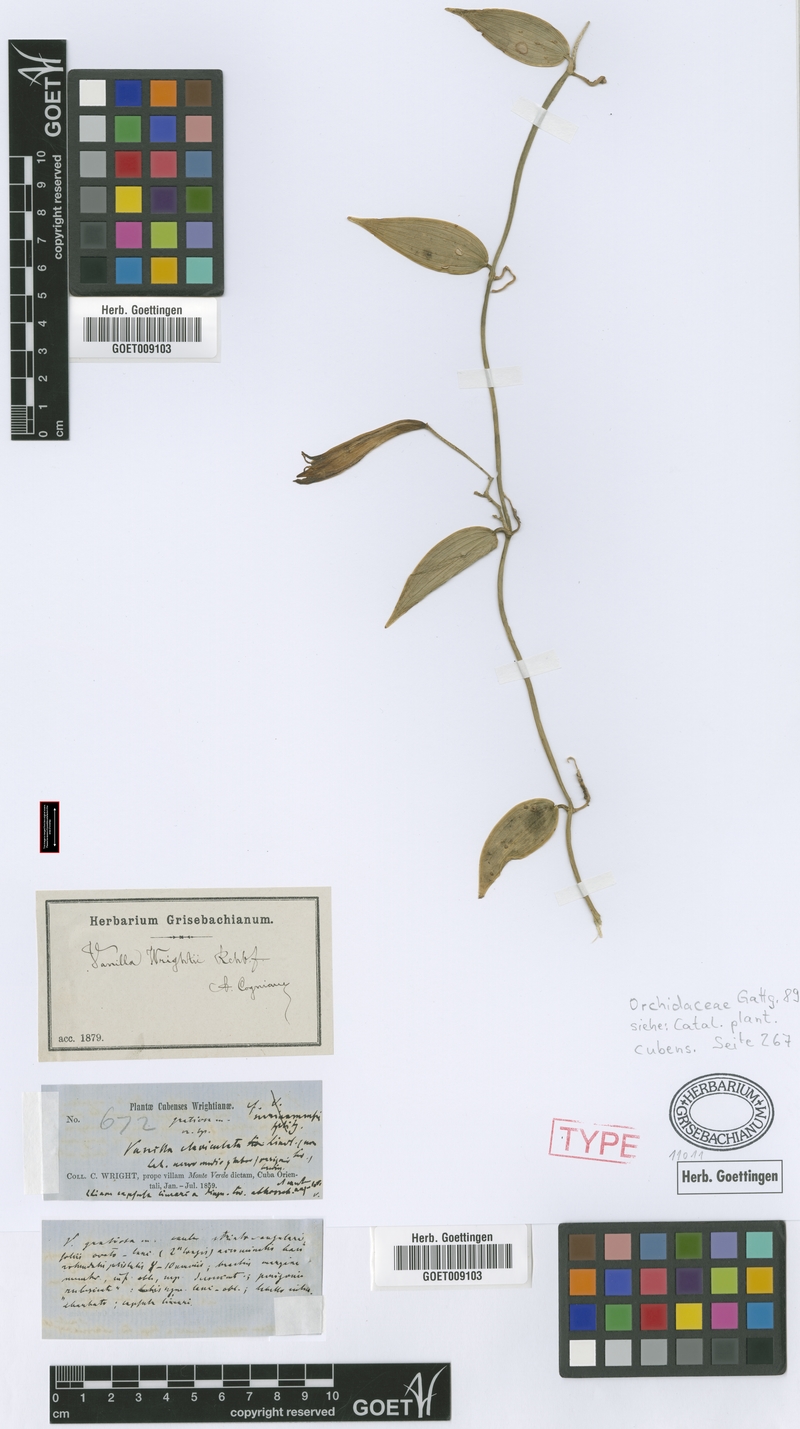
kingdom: Plantae
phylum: Tracheophyta
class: Liliopsida
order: Asparagales
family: Orchidaceae
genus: Vanilla
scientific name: Vanilla bicolor
